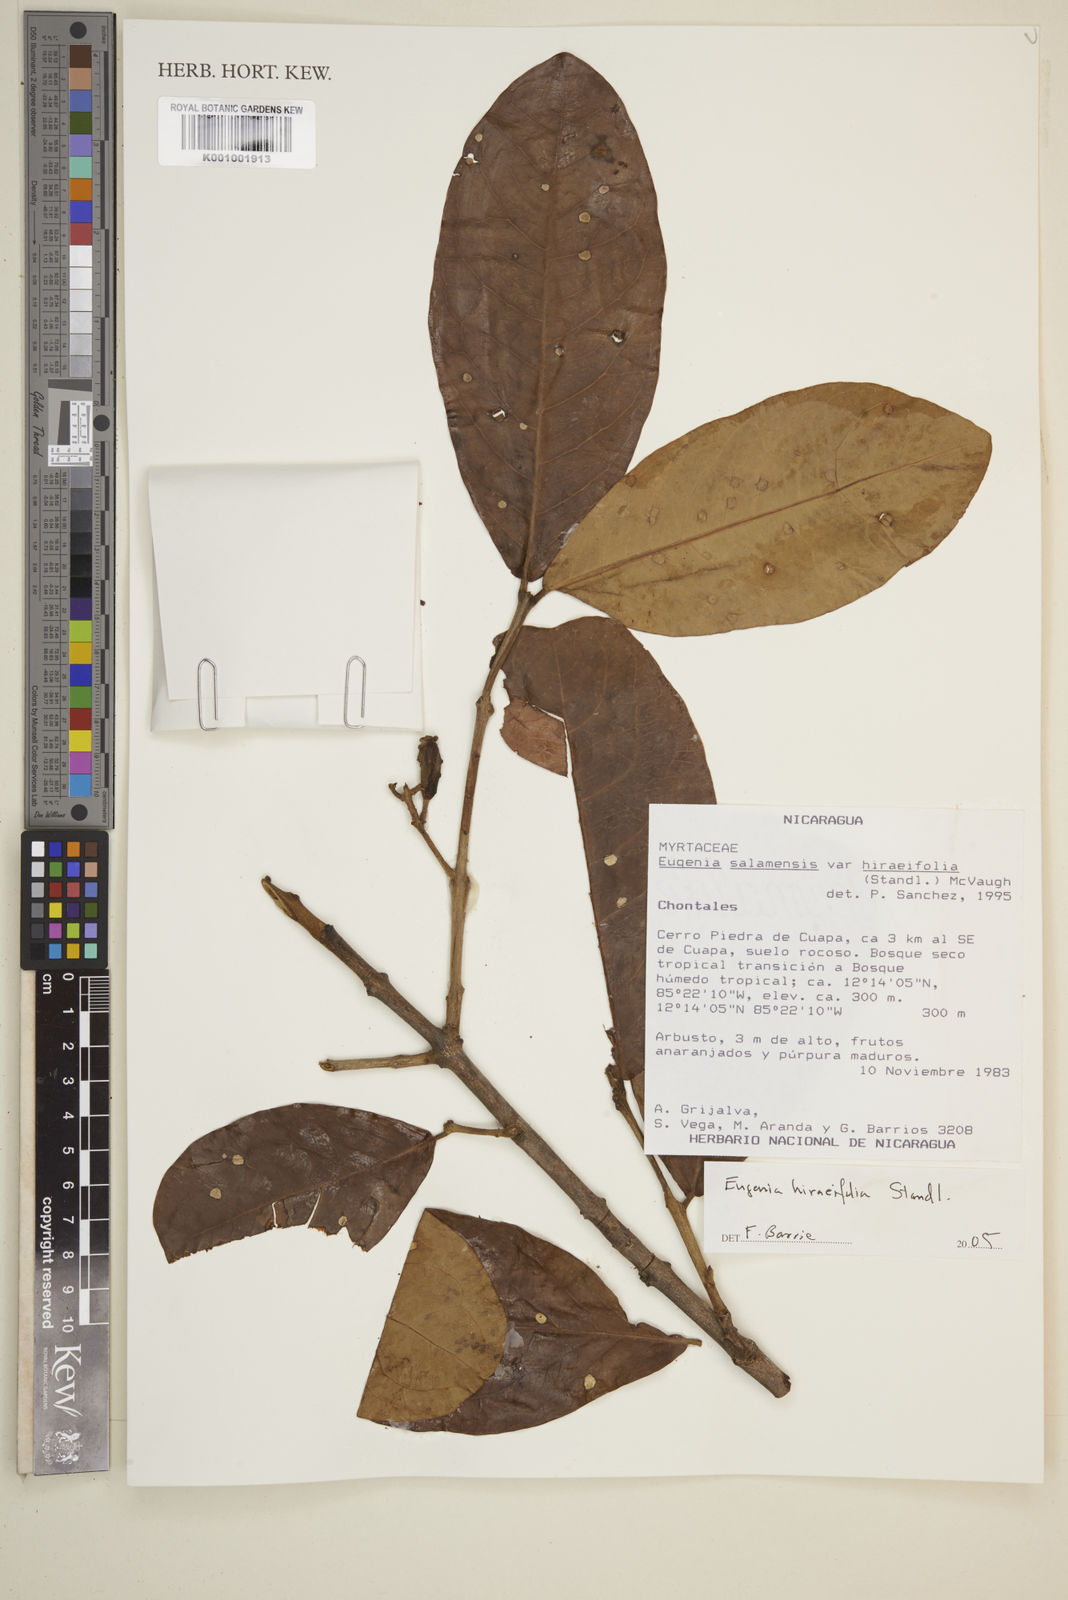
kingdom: Plantae
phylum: Tracheophyta
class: Magnoliopsida
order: Myrtales
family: Myrtaceae
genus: Eugenia
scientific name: Eugenia hiraeifolia
